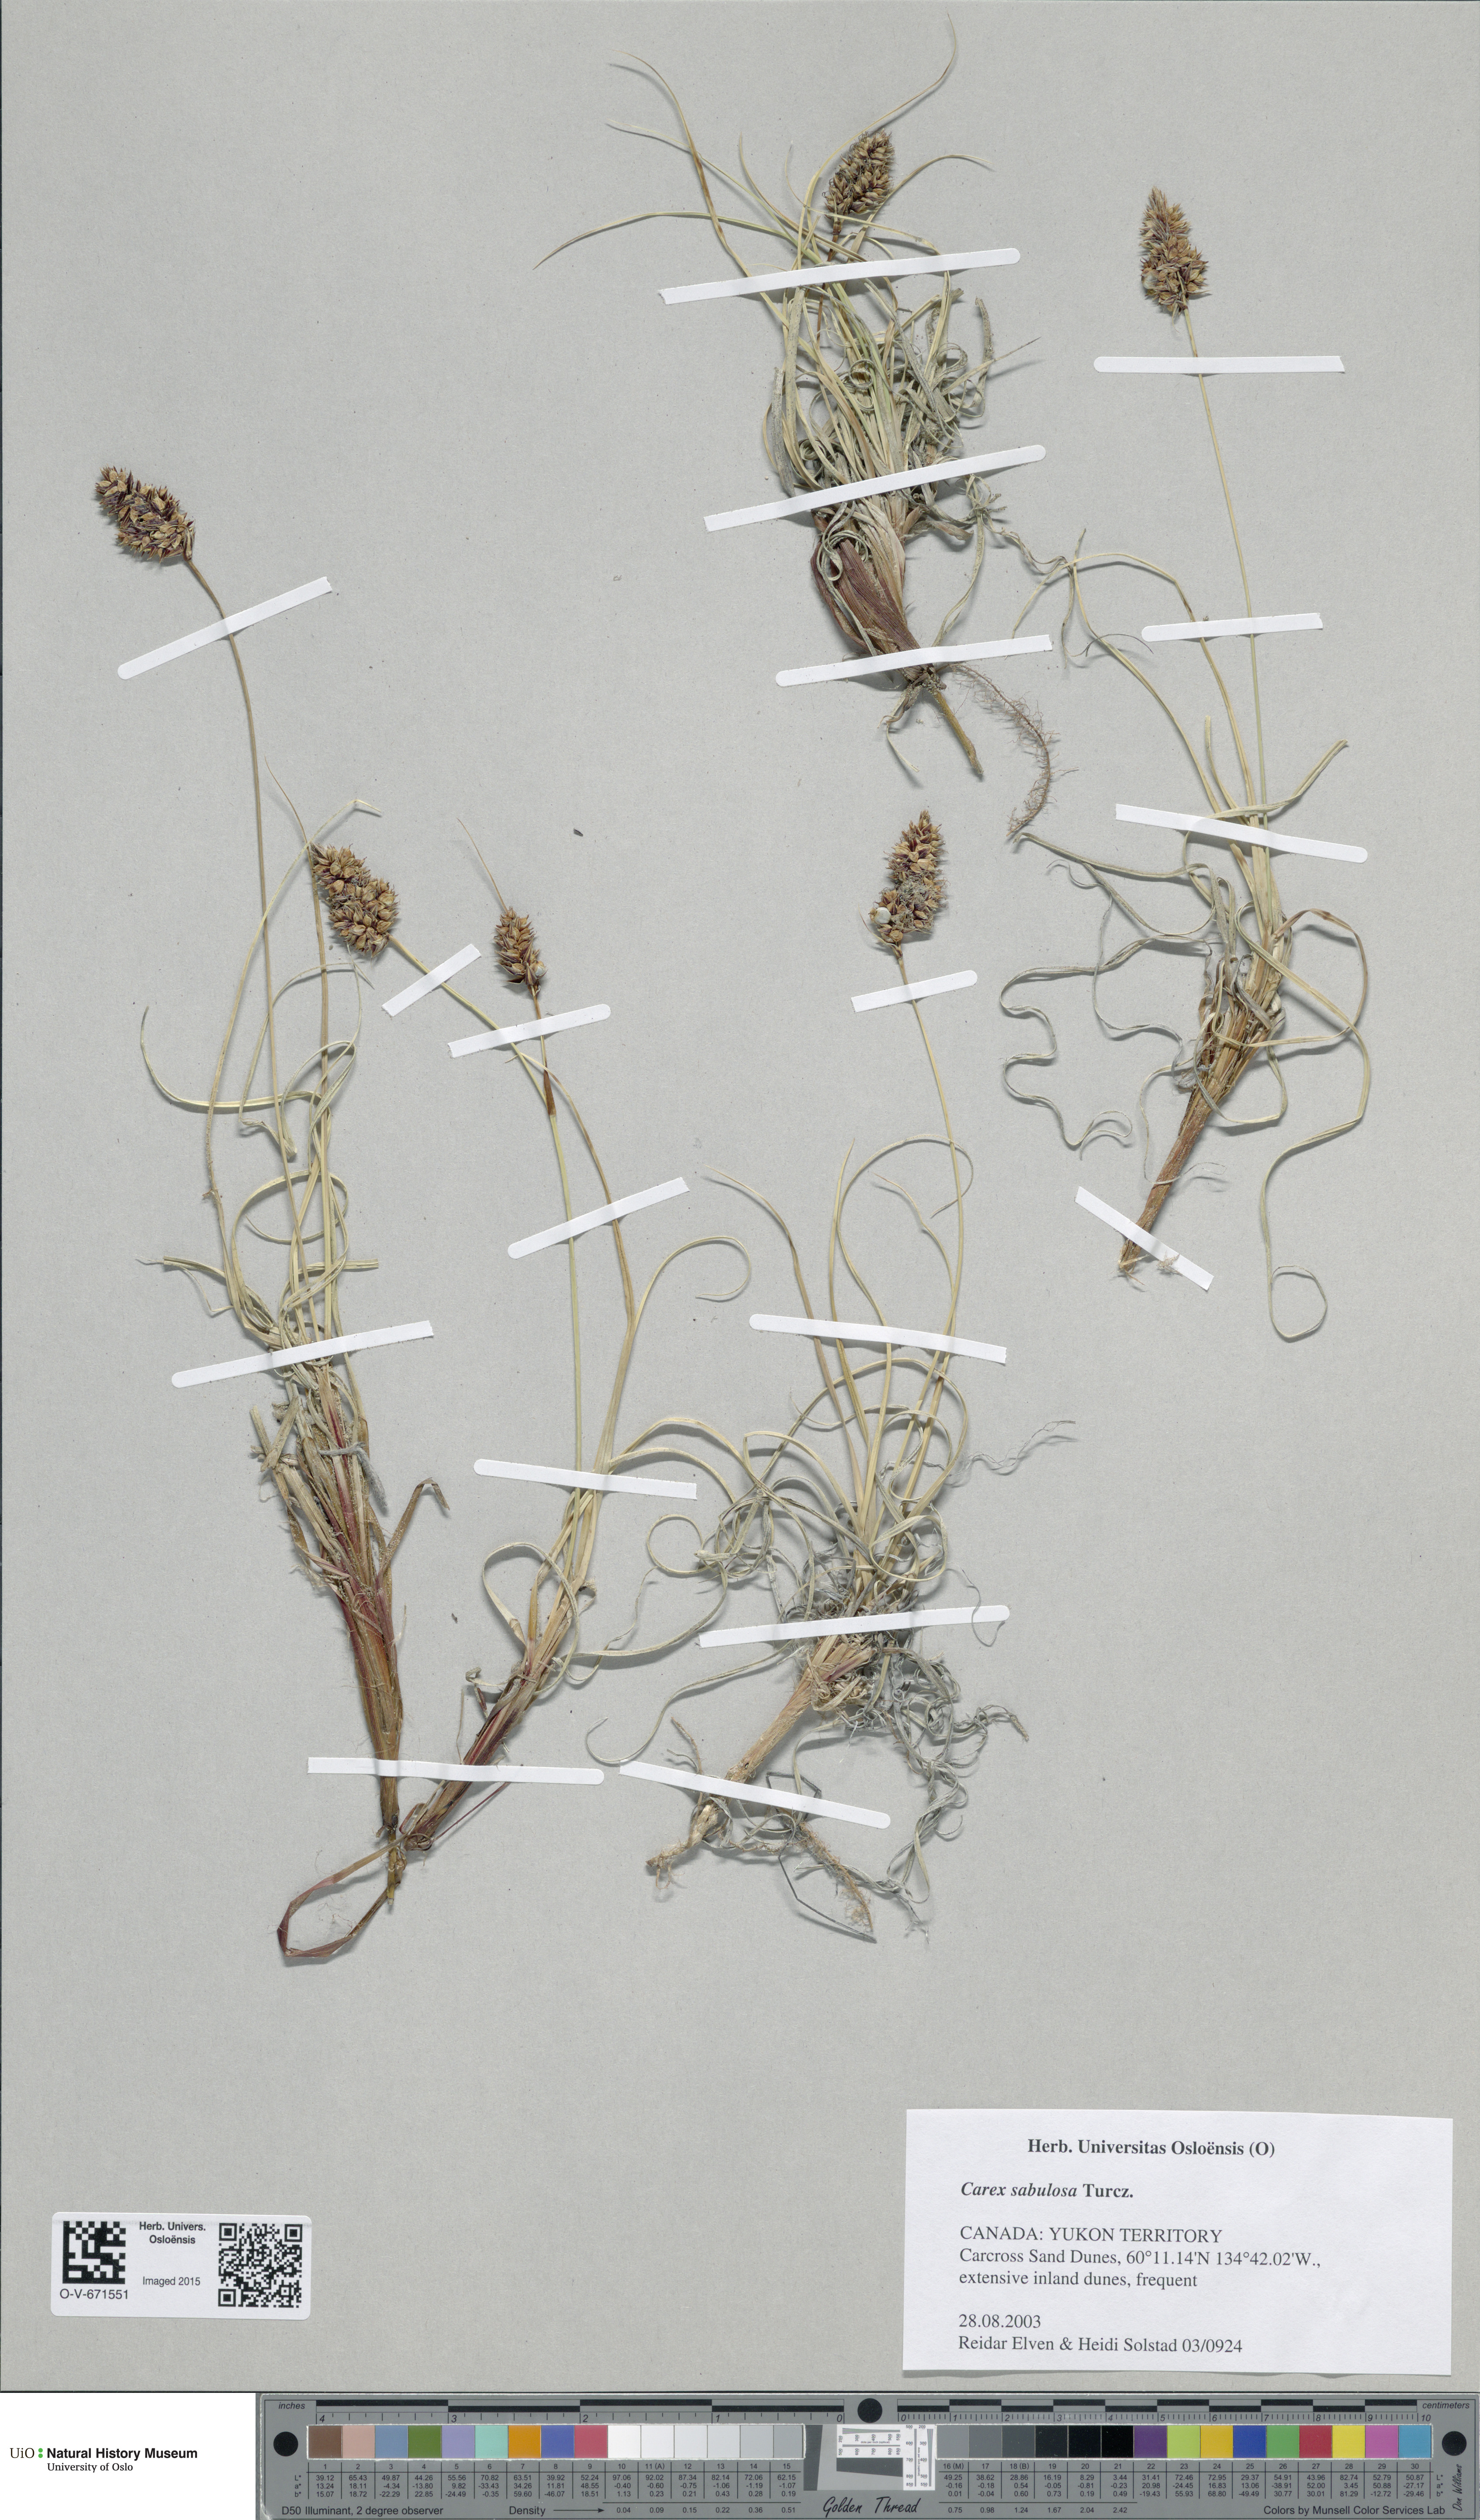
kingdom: Plantae
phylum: Tracheophyta
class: Liliopsida
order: Poales
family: Cyperaceae
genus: Carex
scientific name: Carex sabulosa
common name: Baikal sedge
